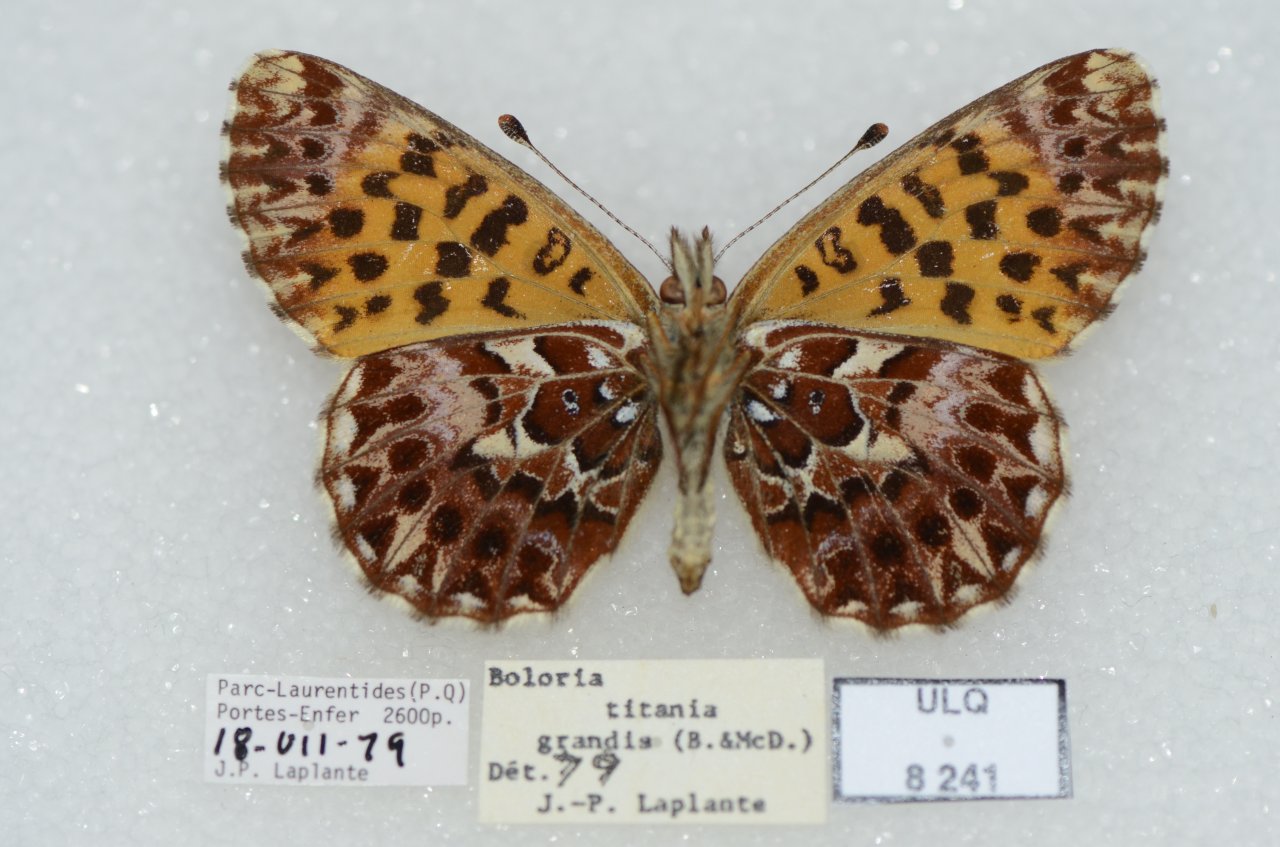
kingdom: Animalia
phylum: Arthropoda
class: Insecta
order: Lepidoptera
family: Nymphalidae
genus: Boloria
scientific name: Boloria chariclea
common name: Arctic Fritillary
